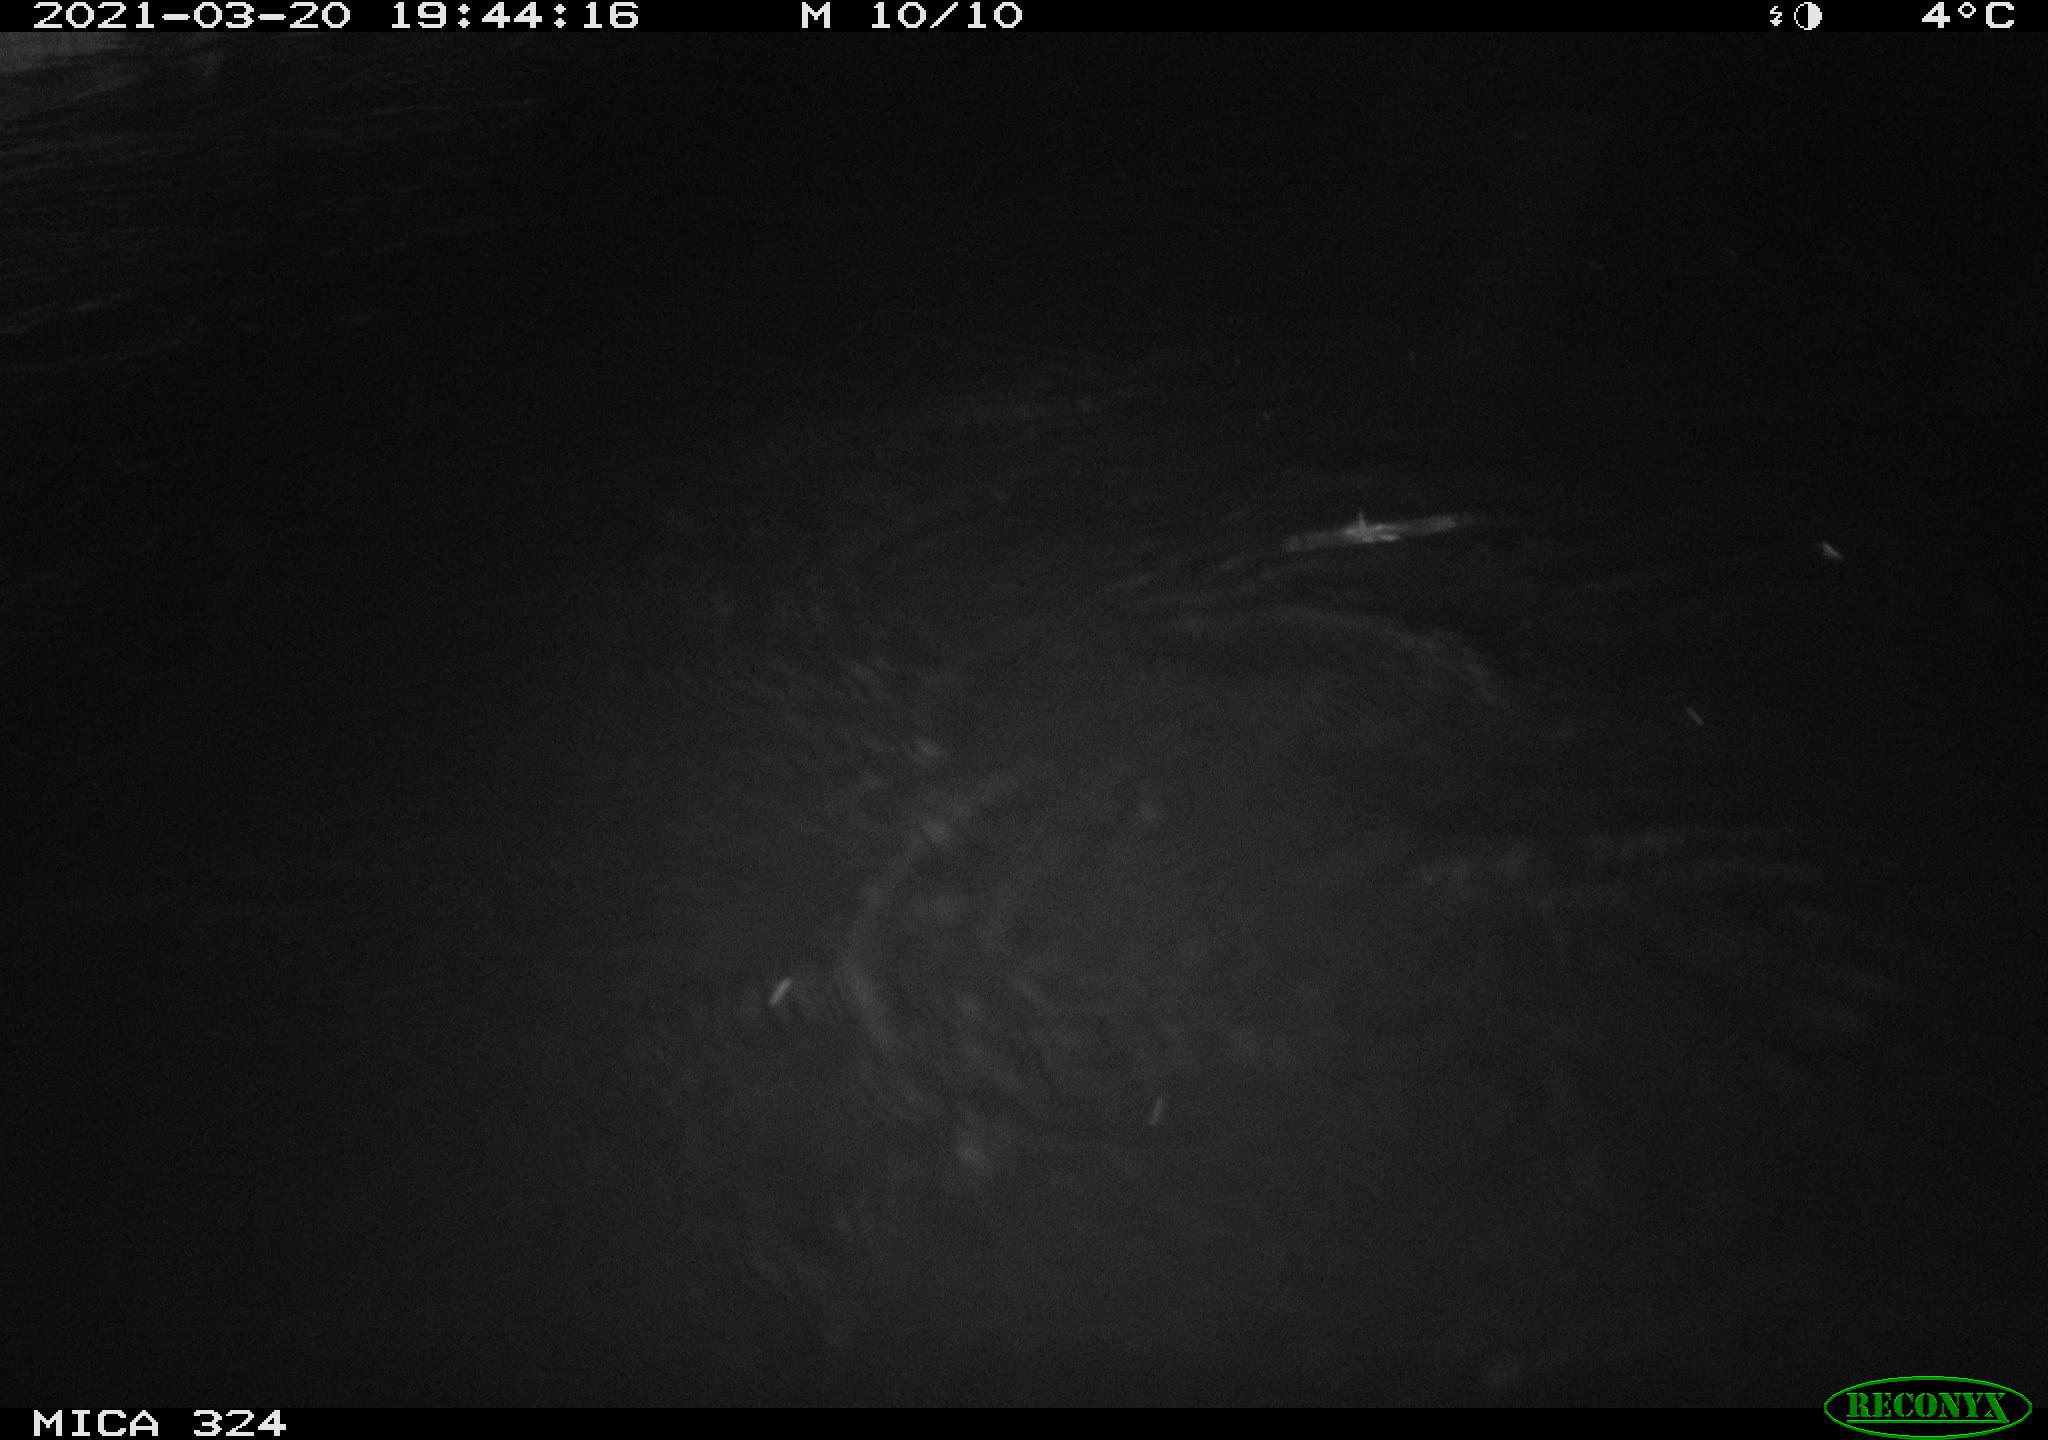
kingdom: Animalia
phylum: Chordata
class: Mammalia
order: Rodentia
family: Cricetidae
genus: Ondatra
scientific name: Ondatra zibethicus
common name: Muskrat
